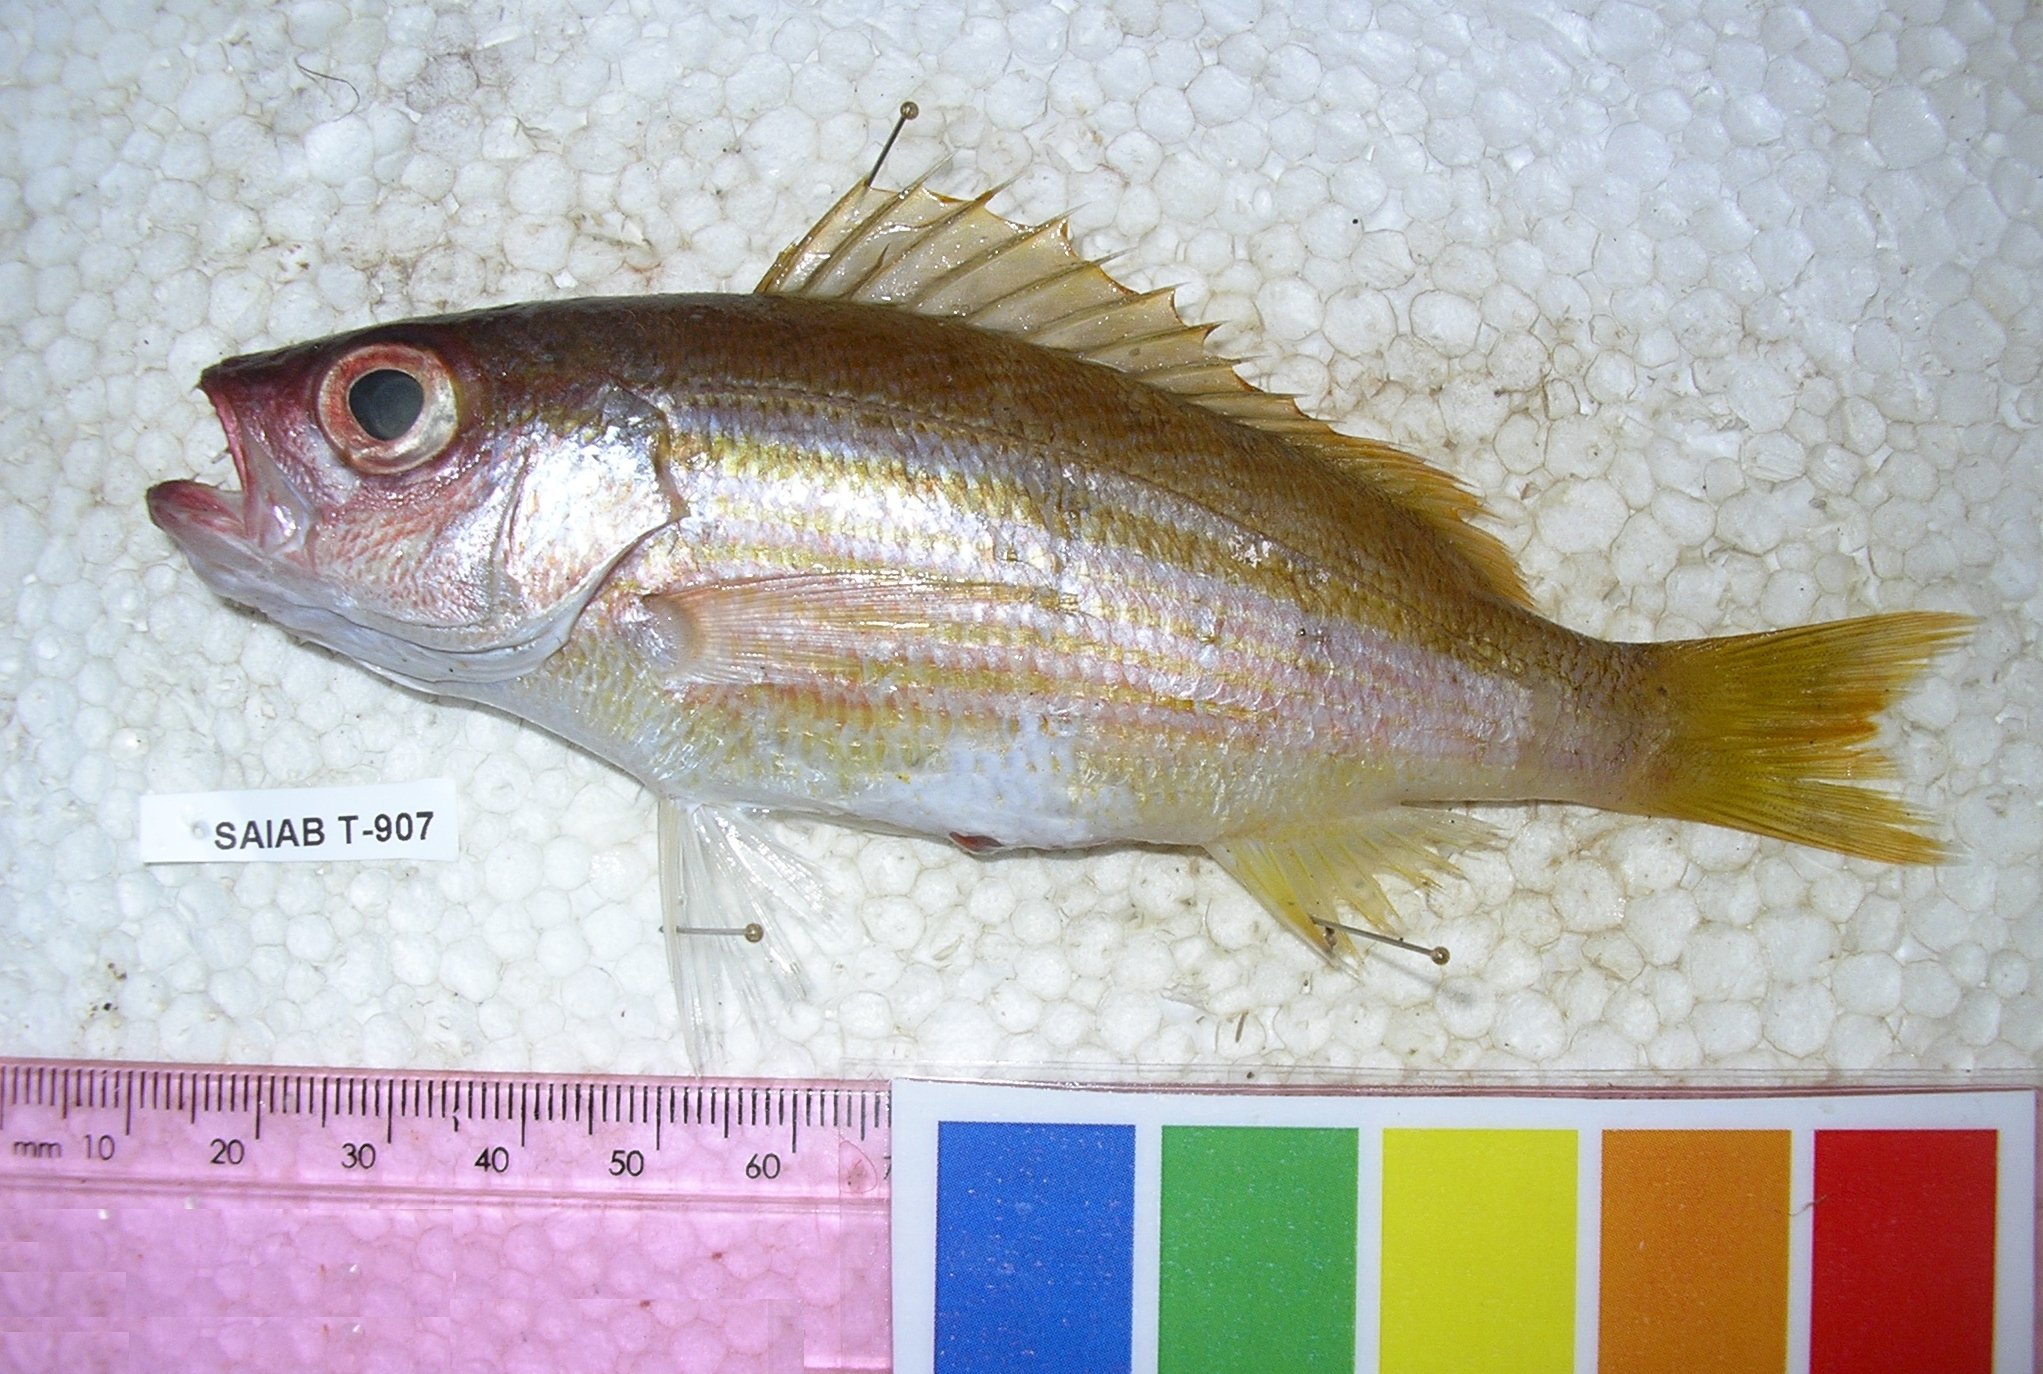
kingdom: Animalia
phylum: Chordata
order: Perciformes
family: Lutjanidae
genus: Lutjanus
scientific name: Lutjanus lutjanus
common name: Bigeye snapper
